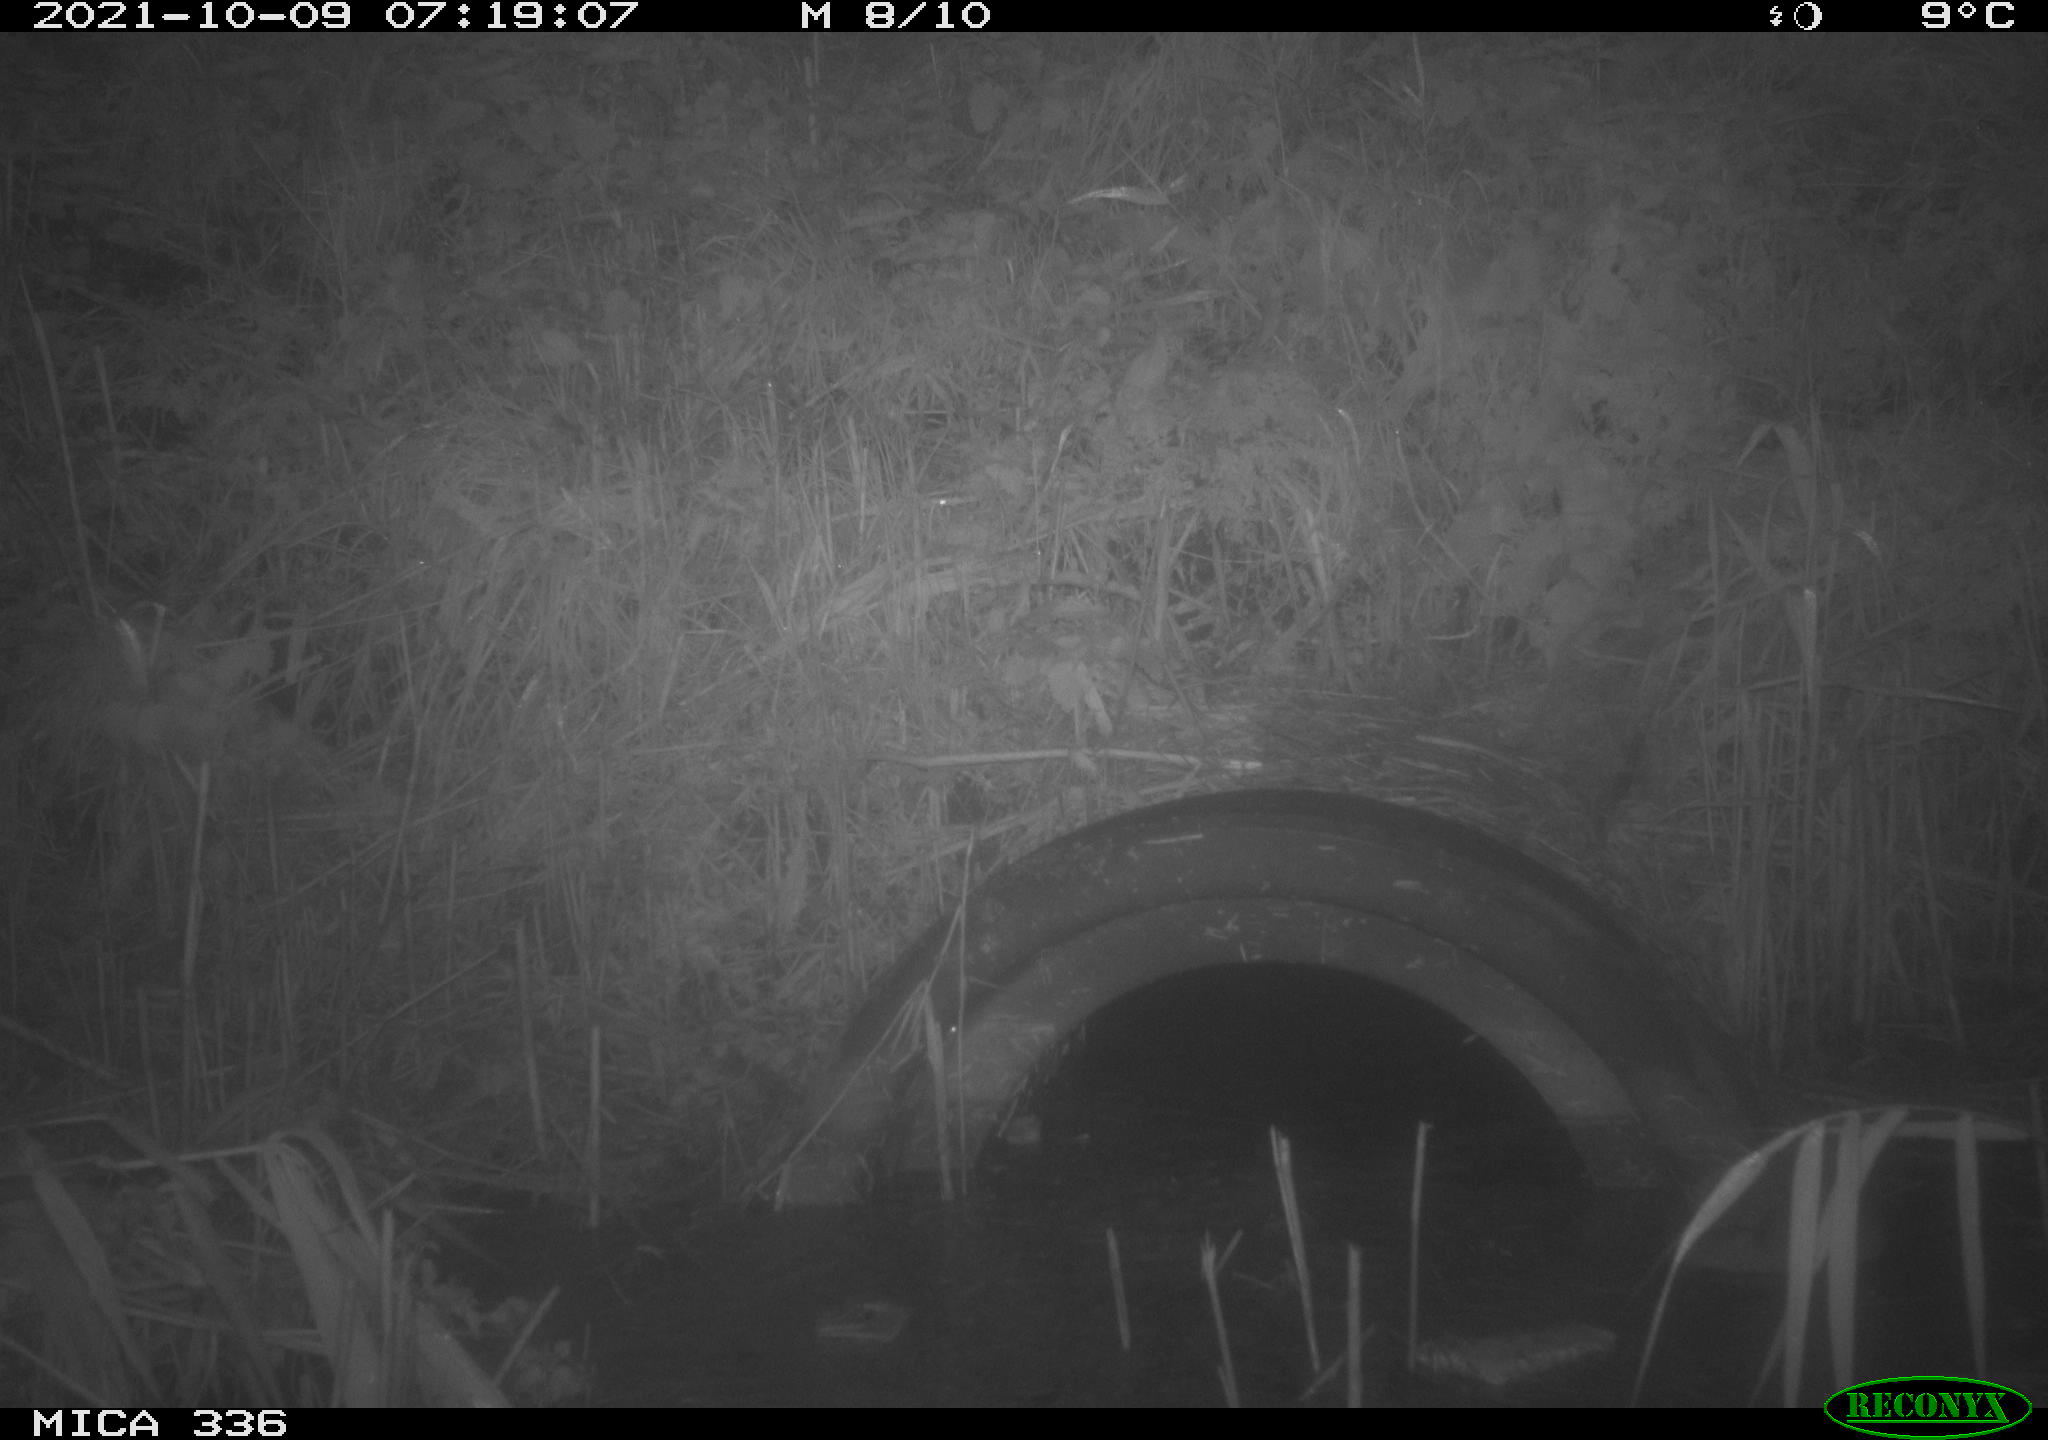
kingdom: Animalia
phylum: Chordata
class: Mammalia
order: Rodentia
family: Muridae
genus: Rattus
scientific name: Rattus norvegicus
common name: Brown rat
